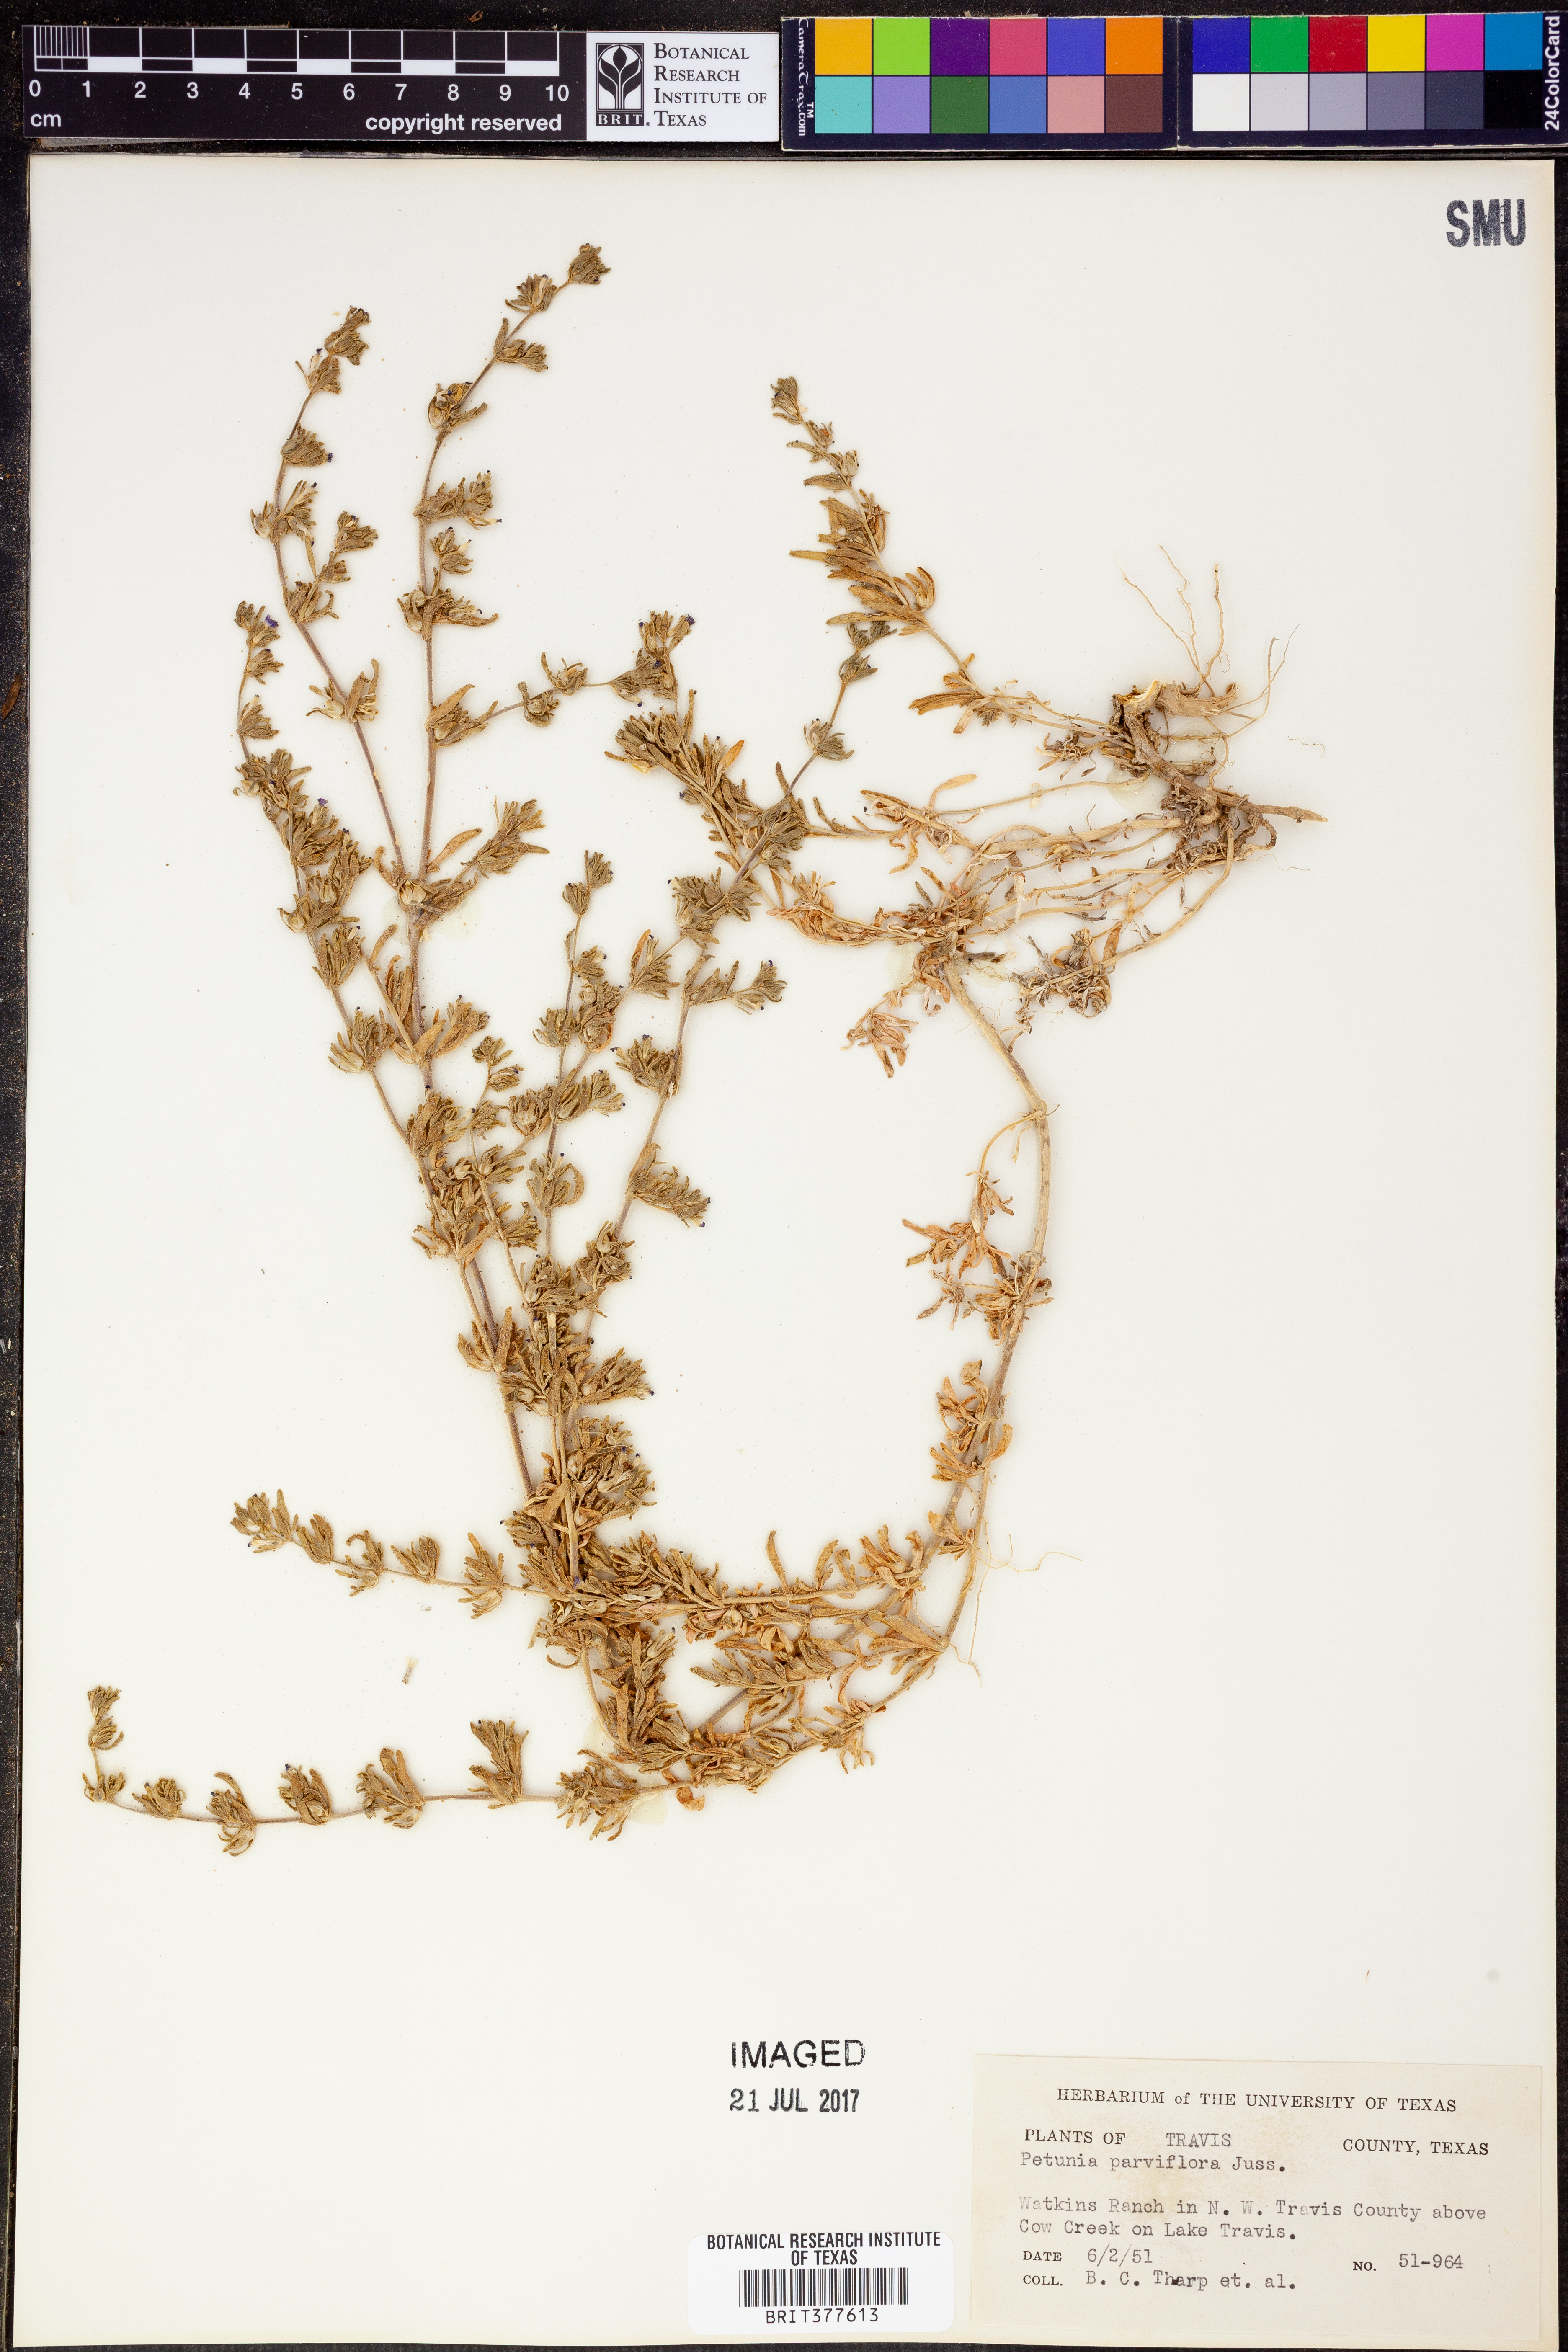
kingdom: Plantae
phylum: Tracheophyta
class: Magnoliopsida
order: Solanales
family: Solanaceae
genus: Calibrachoa
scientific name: Calibrachoa parviflora
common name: Seaside petunia
